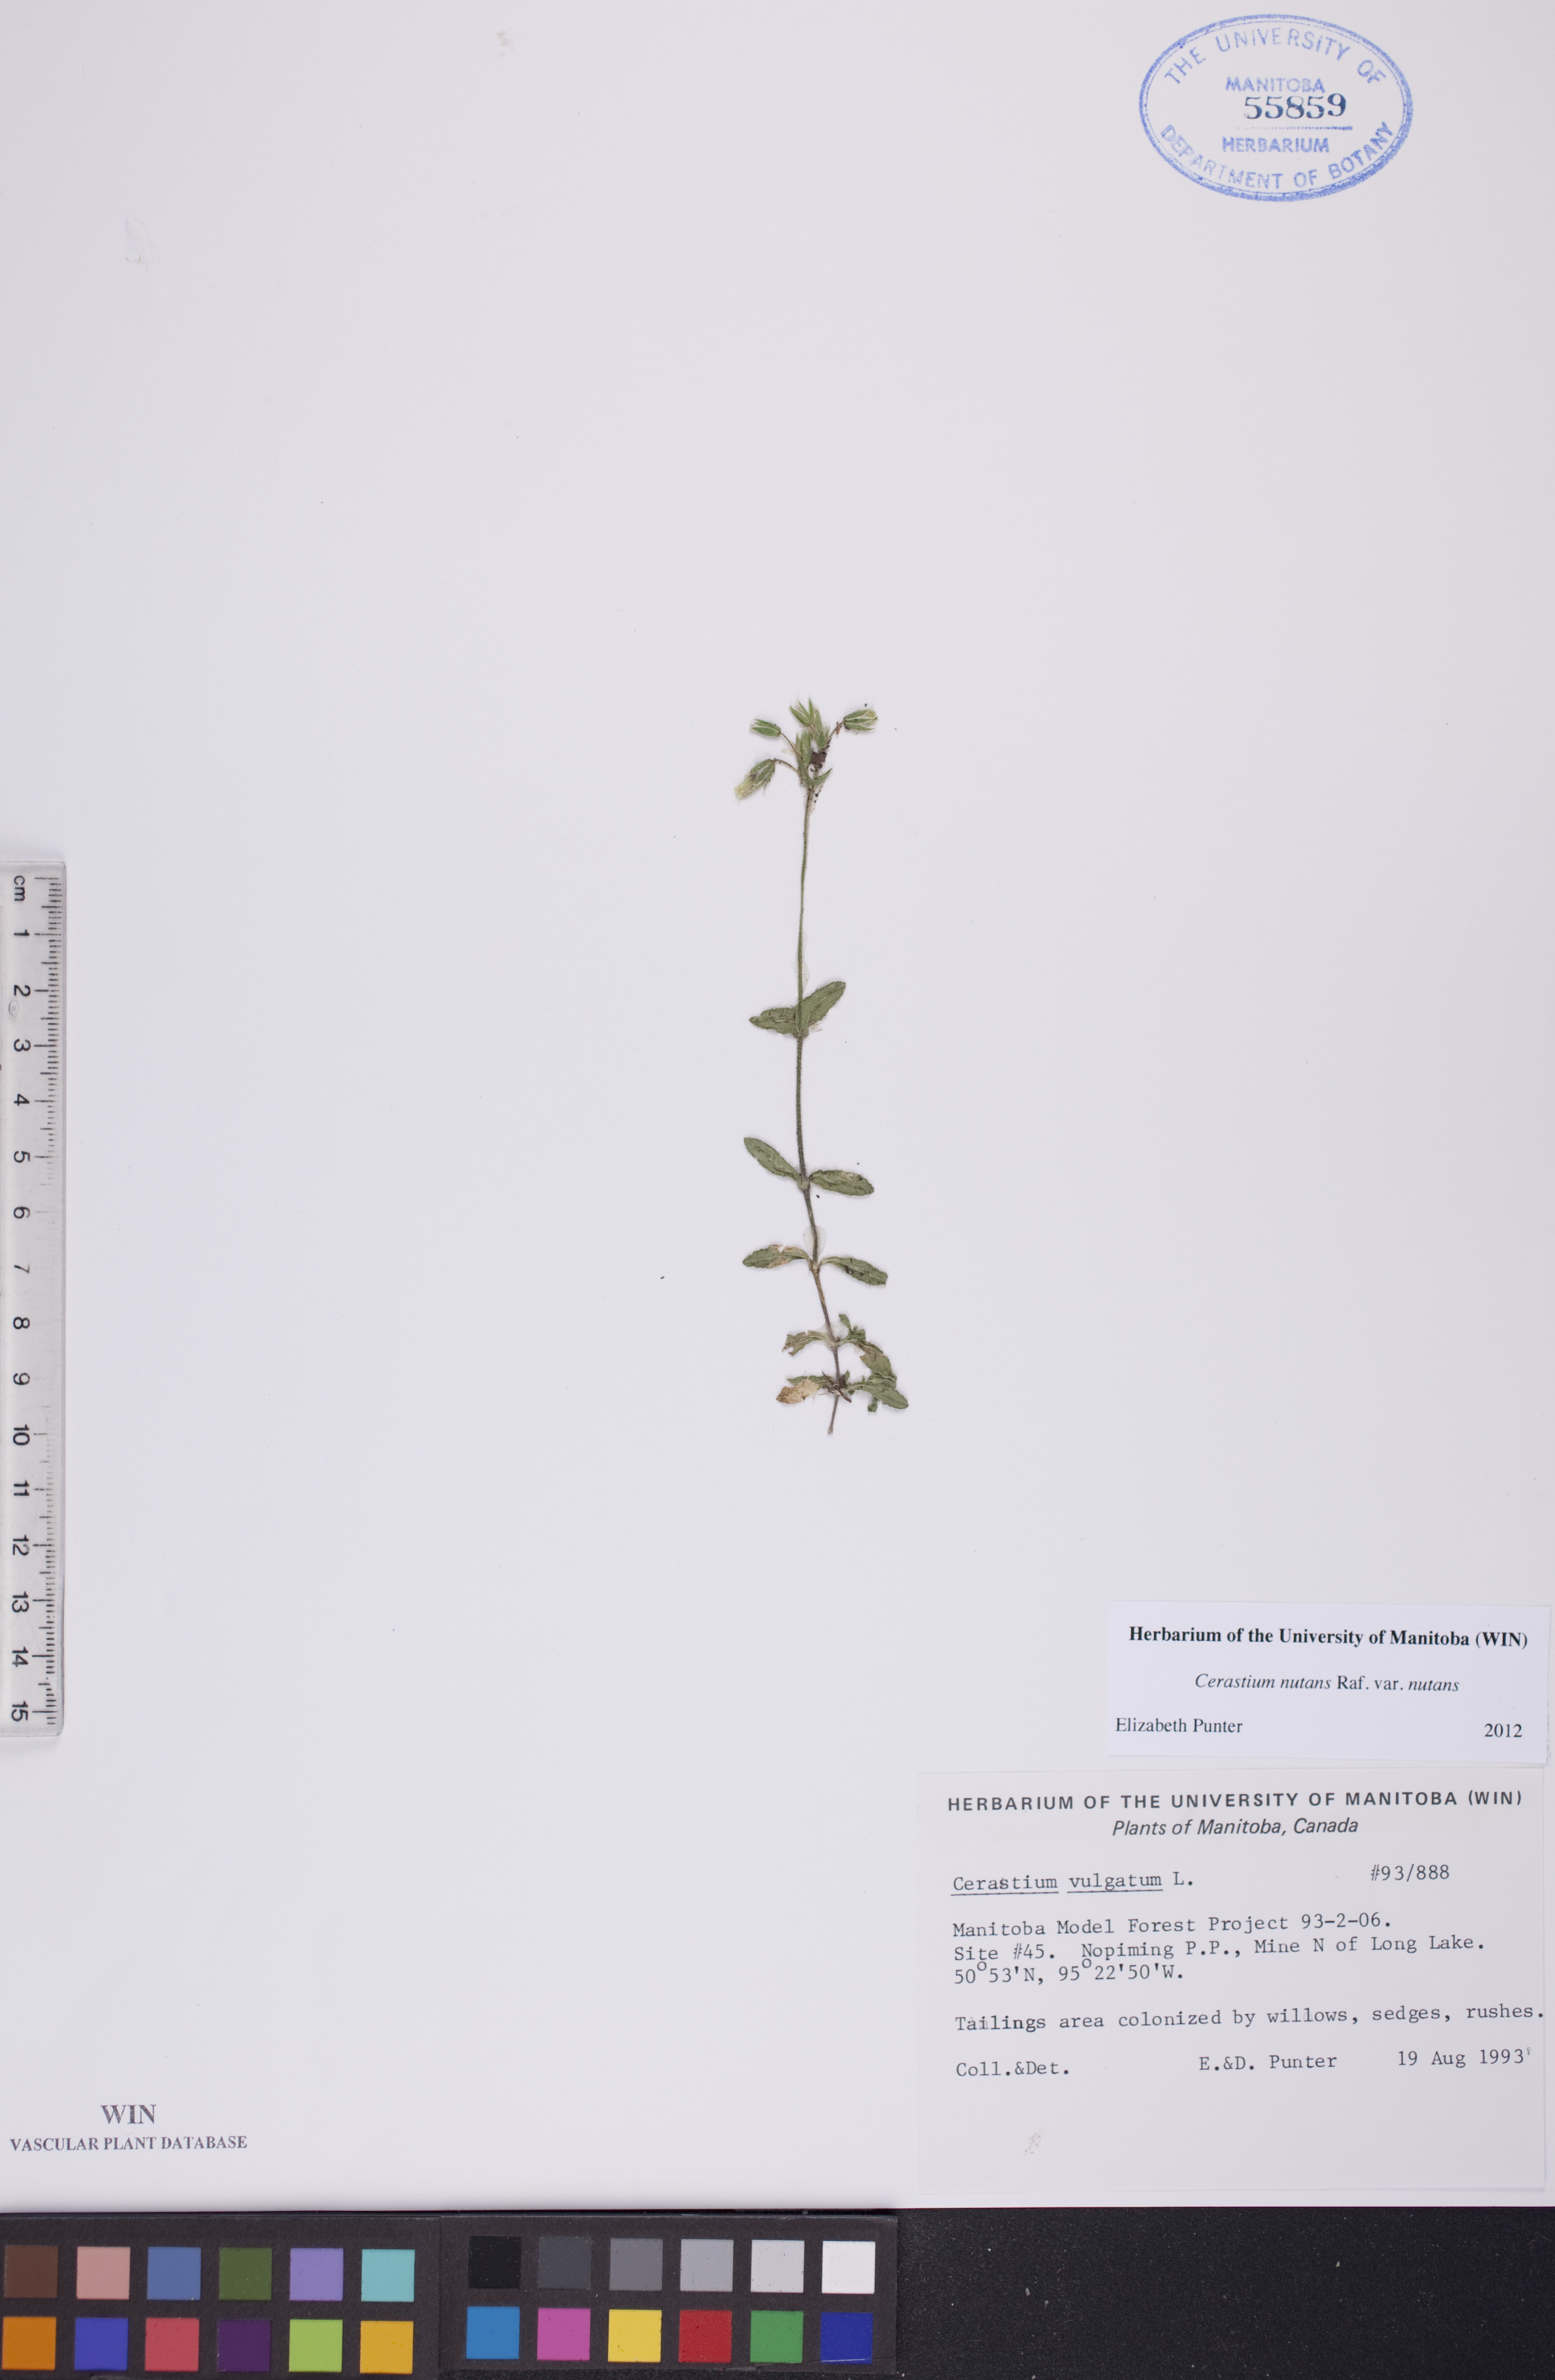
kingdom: Plantae
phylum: Tracheophyta
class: Magnoliopsida
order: Caryophyllales
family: Caryophyllaceae
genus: Cerastium
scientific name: Cerastium nutans
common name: Long-stalked chickweed
